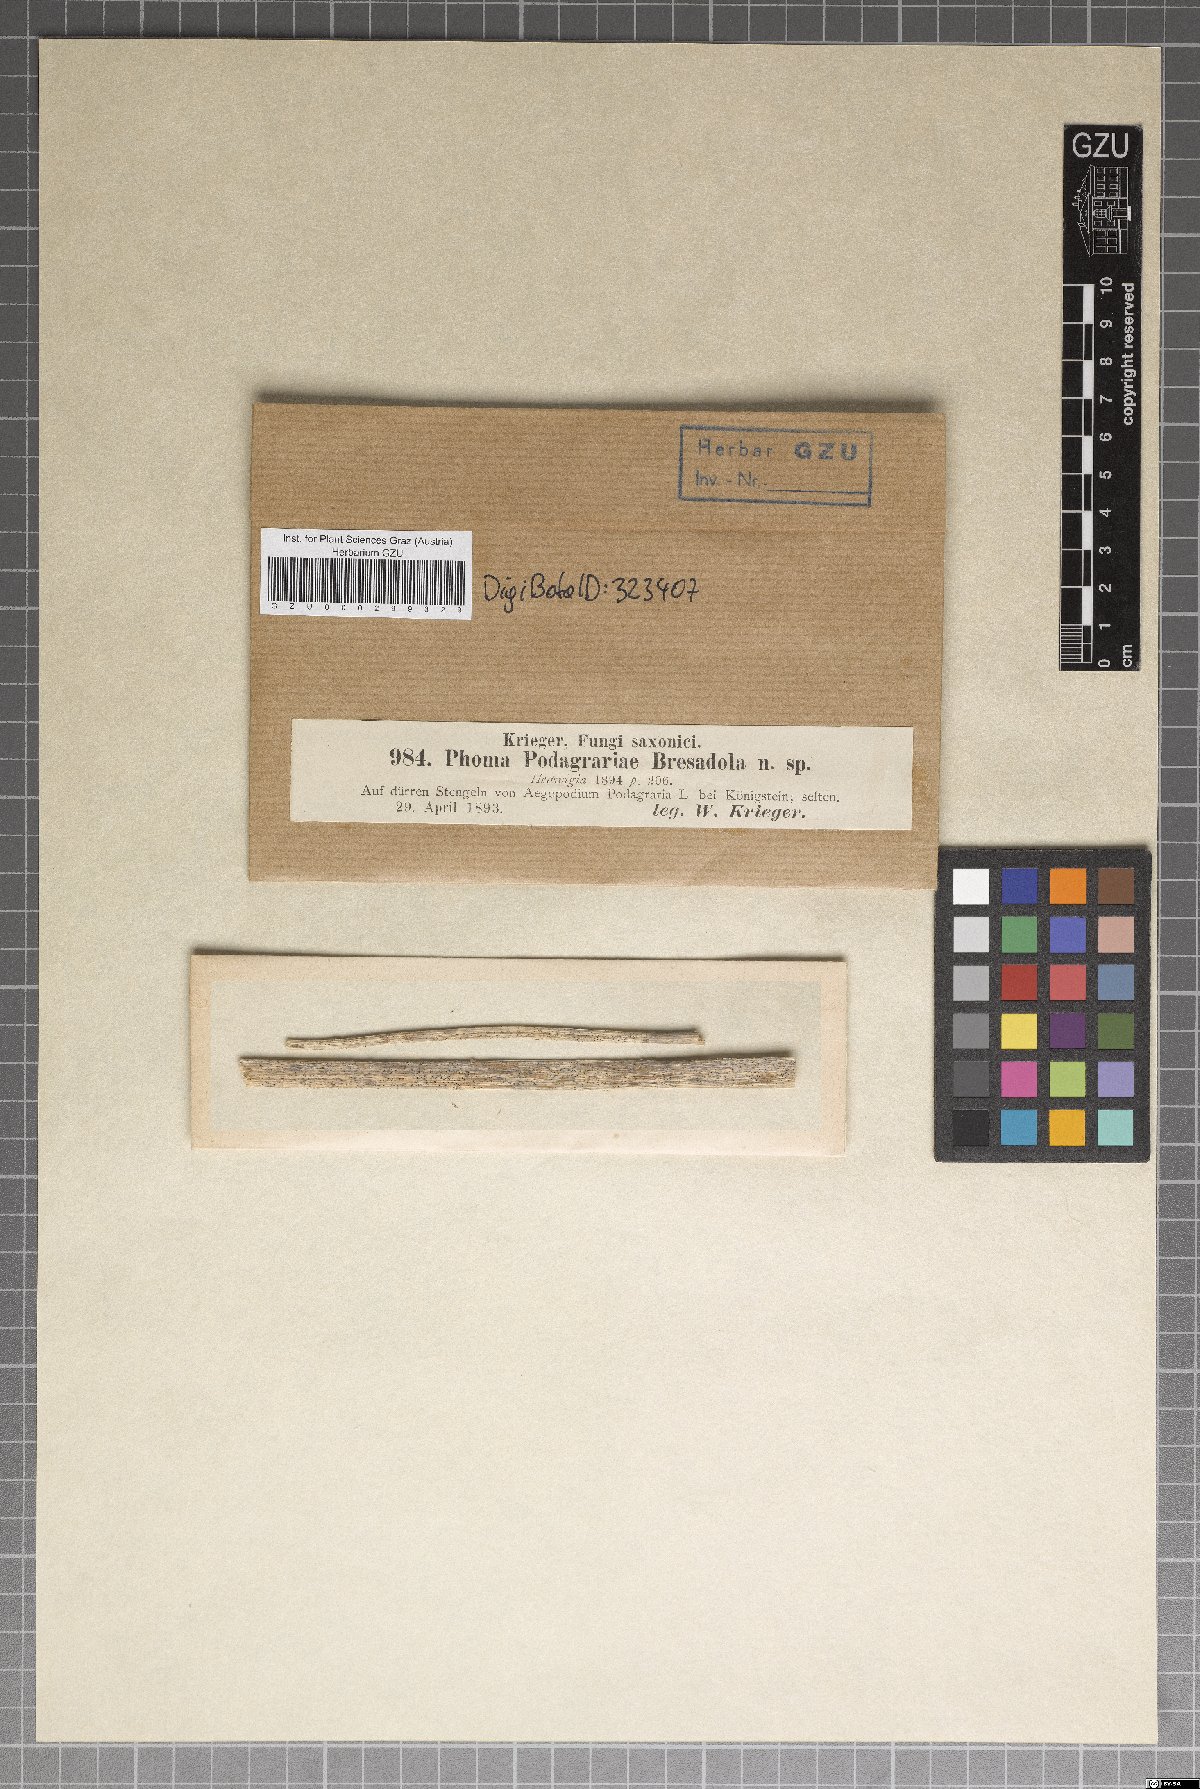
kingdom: Fungi
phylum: Ascomycota
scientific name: Ascomycota
